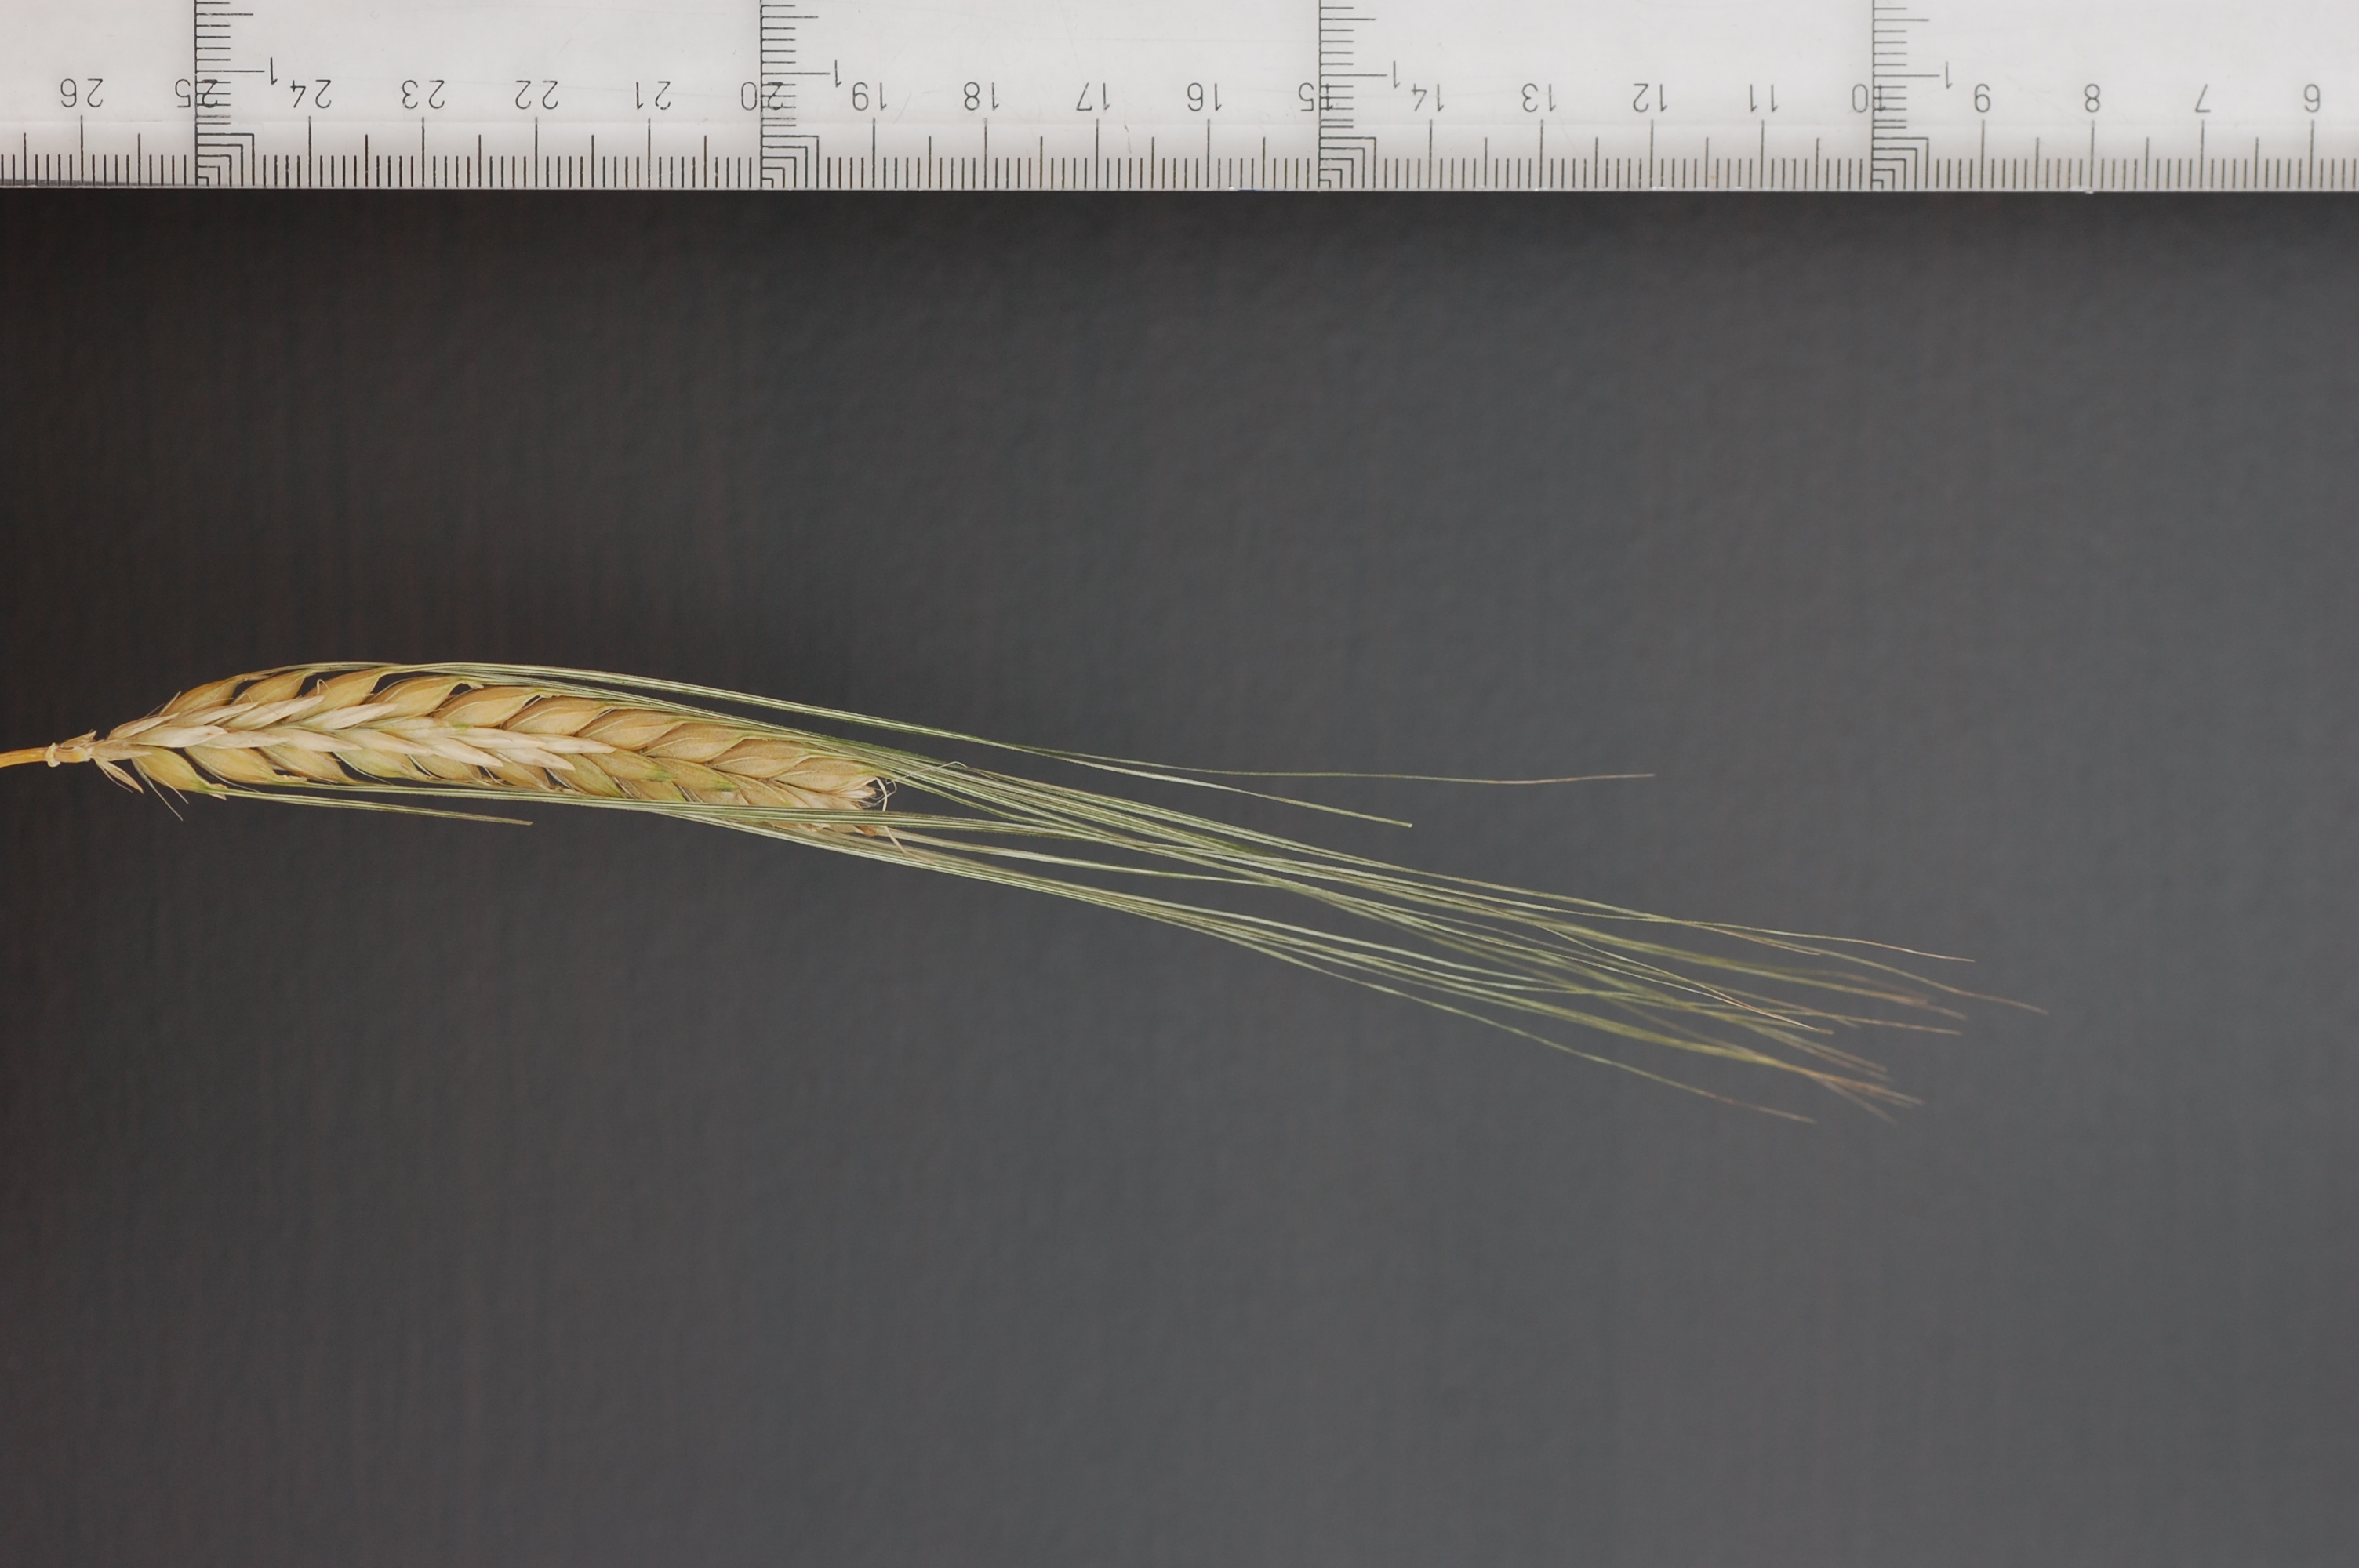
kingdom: Plantae
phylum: Tracheophyta
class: Liliopsida
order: Poales
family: Poaceae
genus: Hordeum
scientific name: Hordeum vulgare
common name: Common barley
